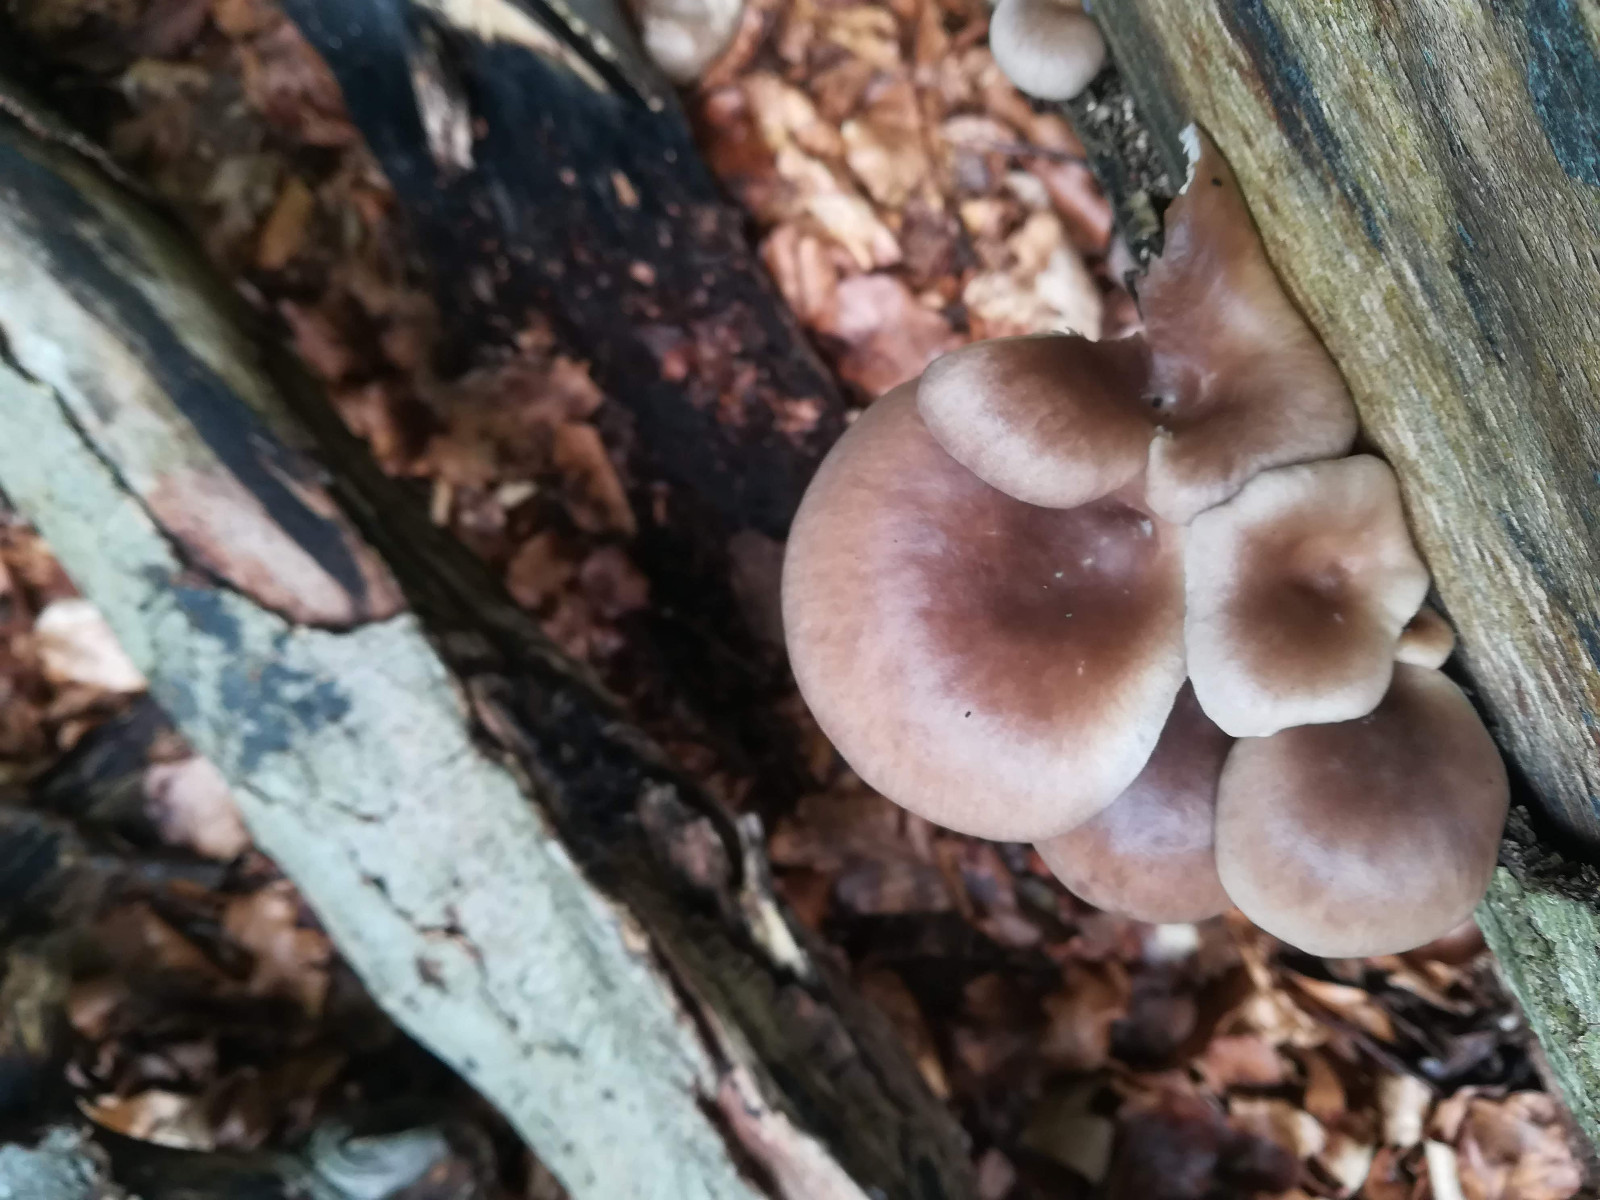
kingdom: Fungi
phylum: Basidiomycota
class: Agaricomycetes
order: Agaricales
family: Pleurotaceae
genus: Pleurotus
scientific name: Pleurotus ostreatus
